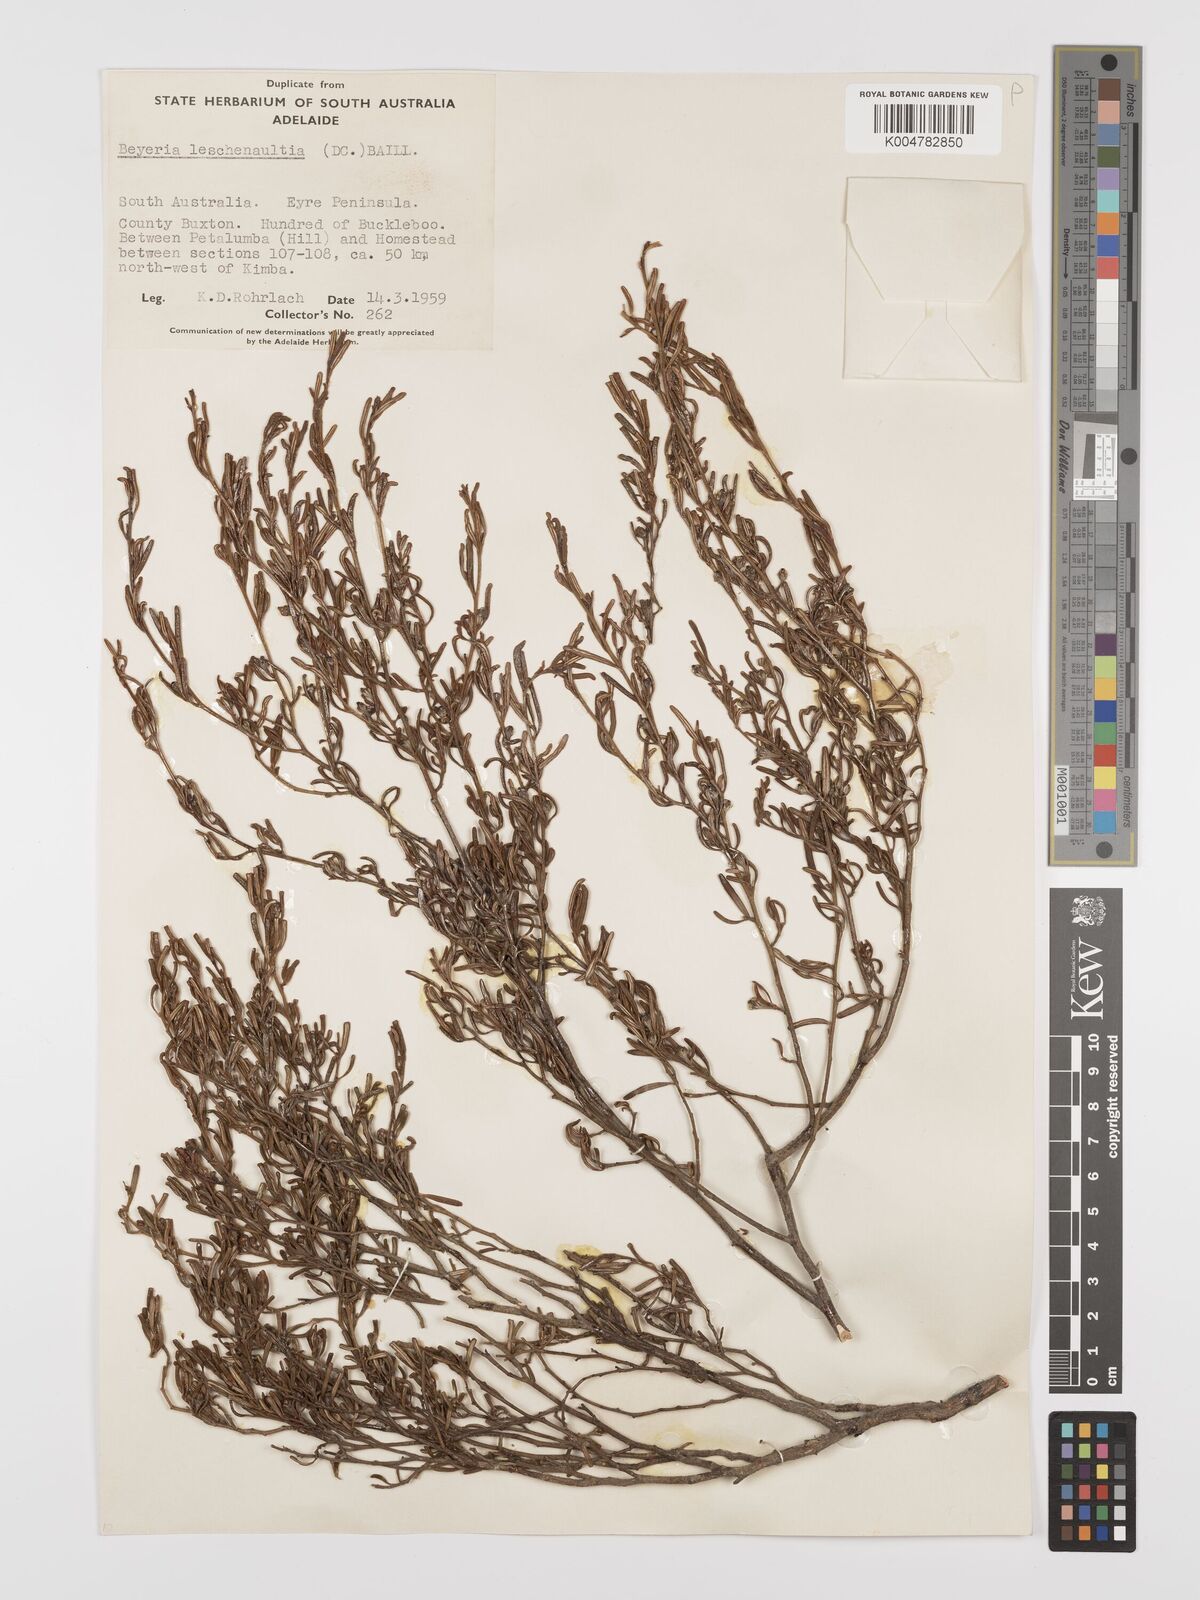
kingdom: Plantae
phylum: Tracheophyta
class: Magnoliopsida
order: Malpighiales
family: Euphorbiaceae
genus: Beyeria
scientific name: Beyeria lechenaultii
